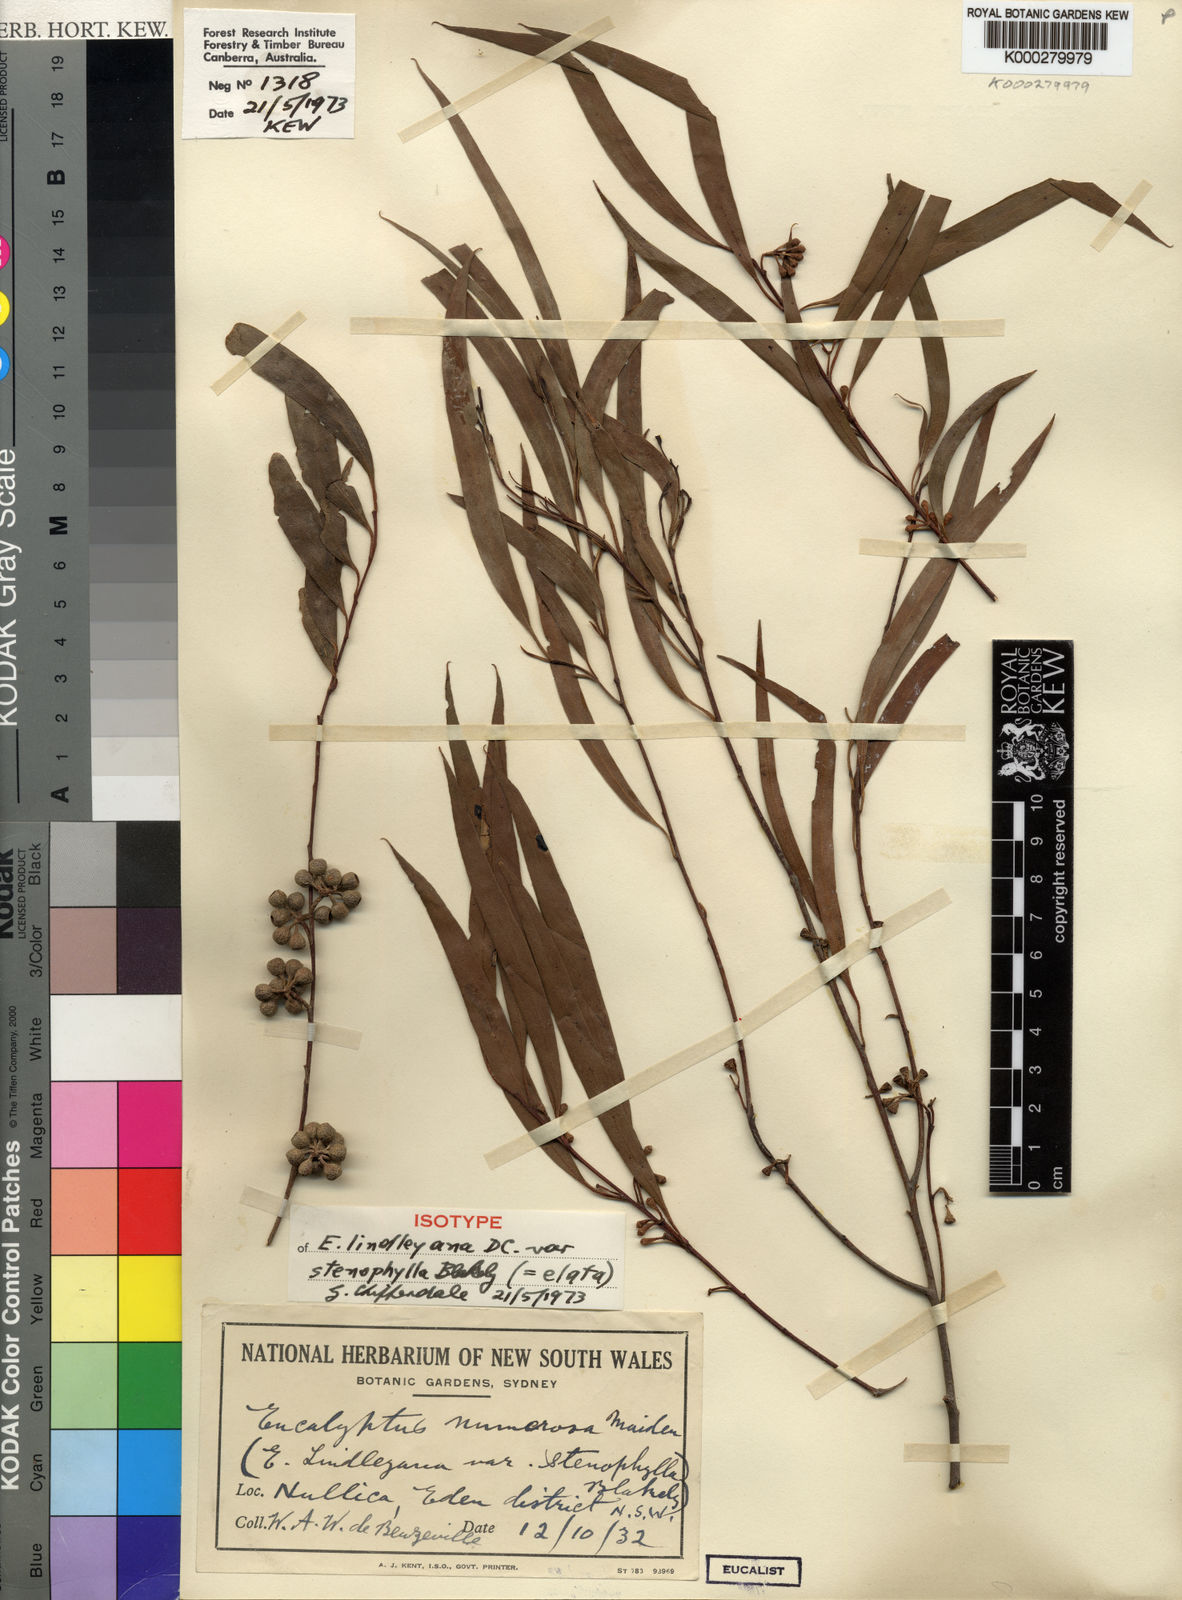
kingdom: Plantae
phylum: Tracheophyta
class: Magnoliopsida
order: Myrtales
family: Myrtaceae
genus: Eucalyptus
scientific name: Eucalyptus elata
